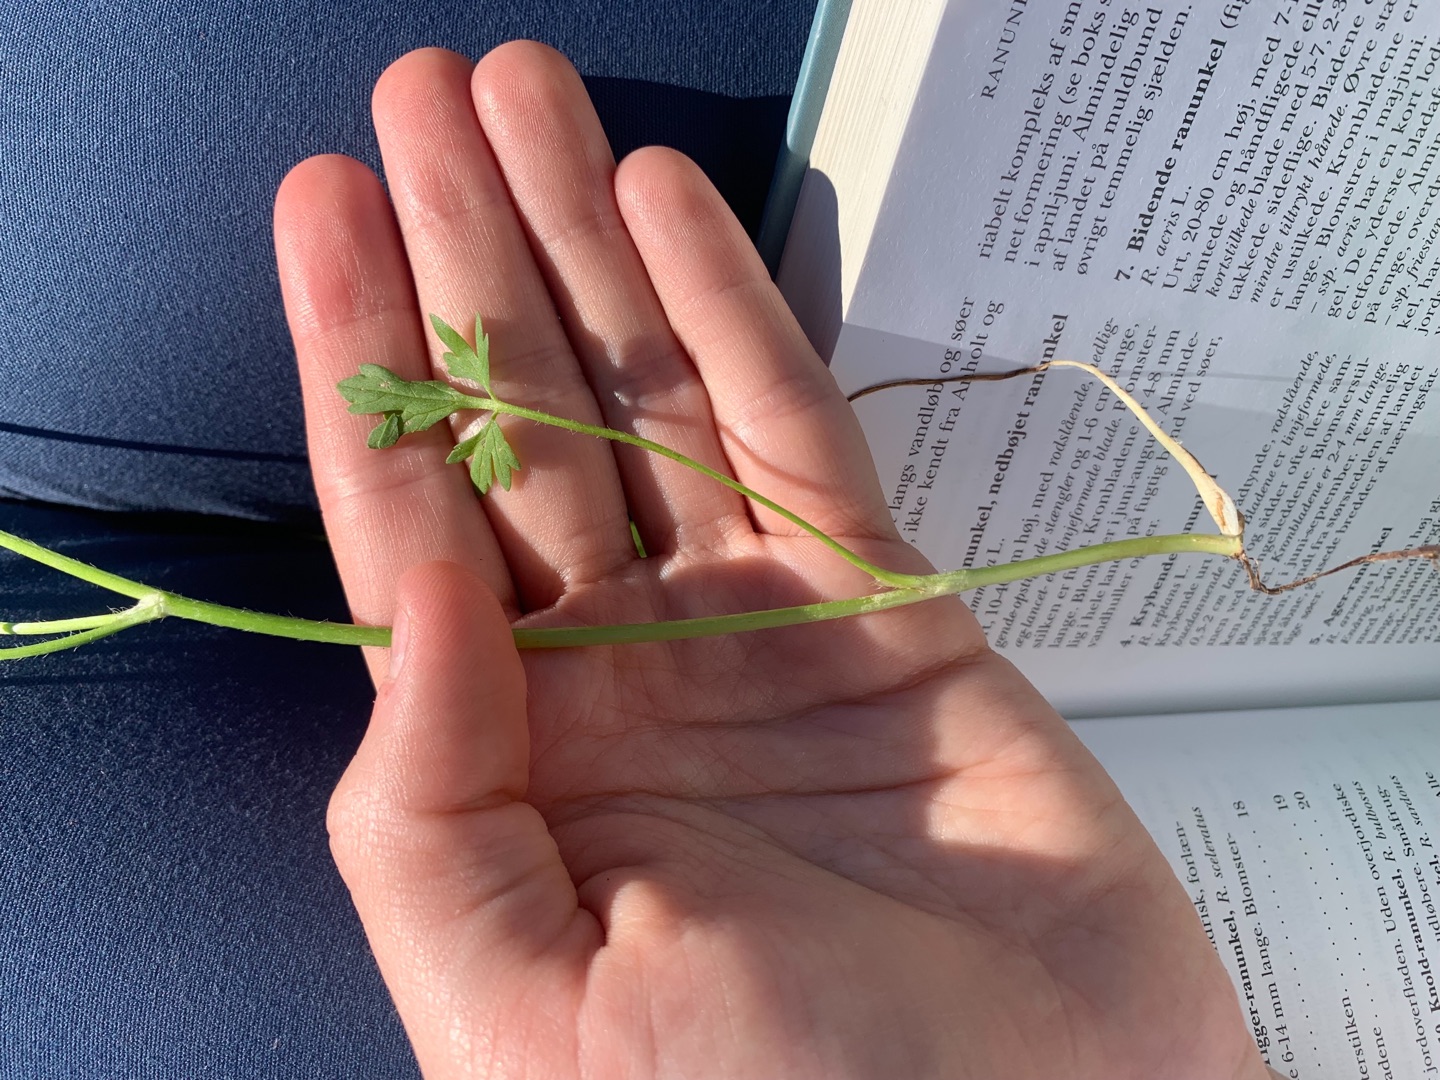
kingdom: Plantae
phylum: Tracheophyta
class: Magnoliopsida
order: Ranunculales
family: Ranunculaceae
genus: Ranunculus
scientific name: Ranunculus sardous
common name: Stivhåret ranunkel
